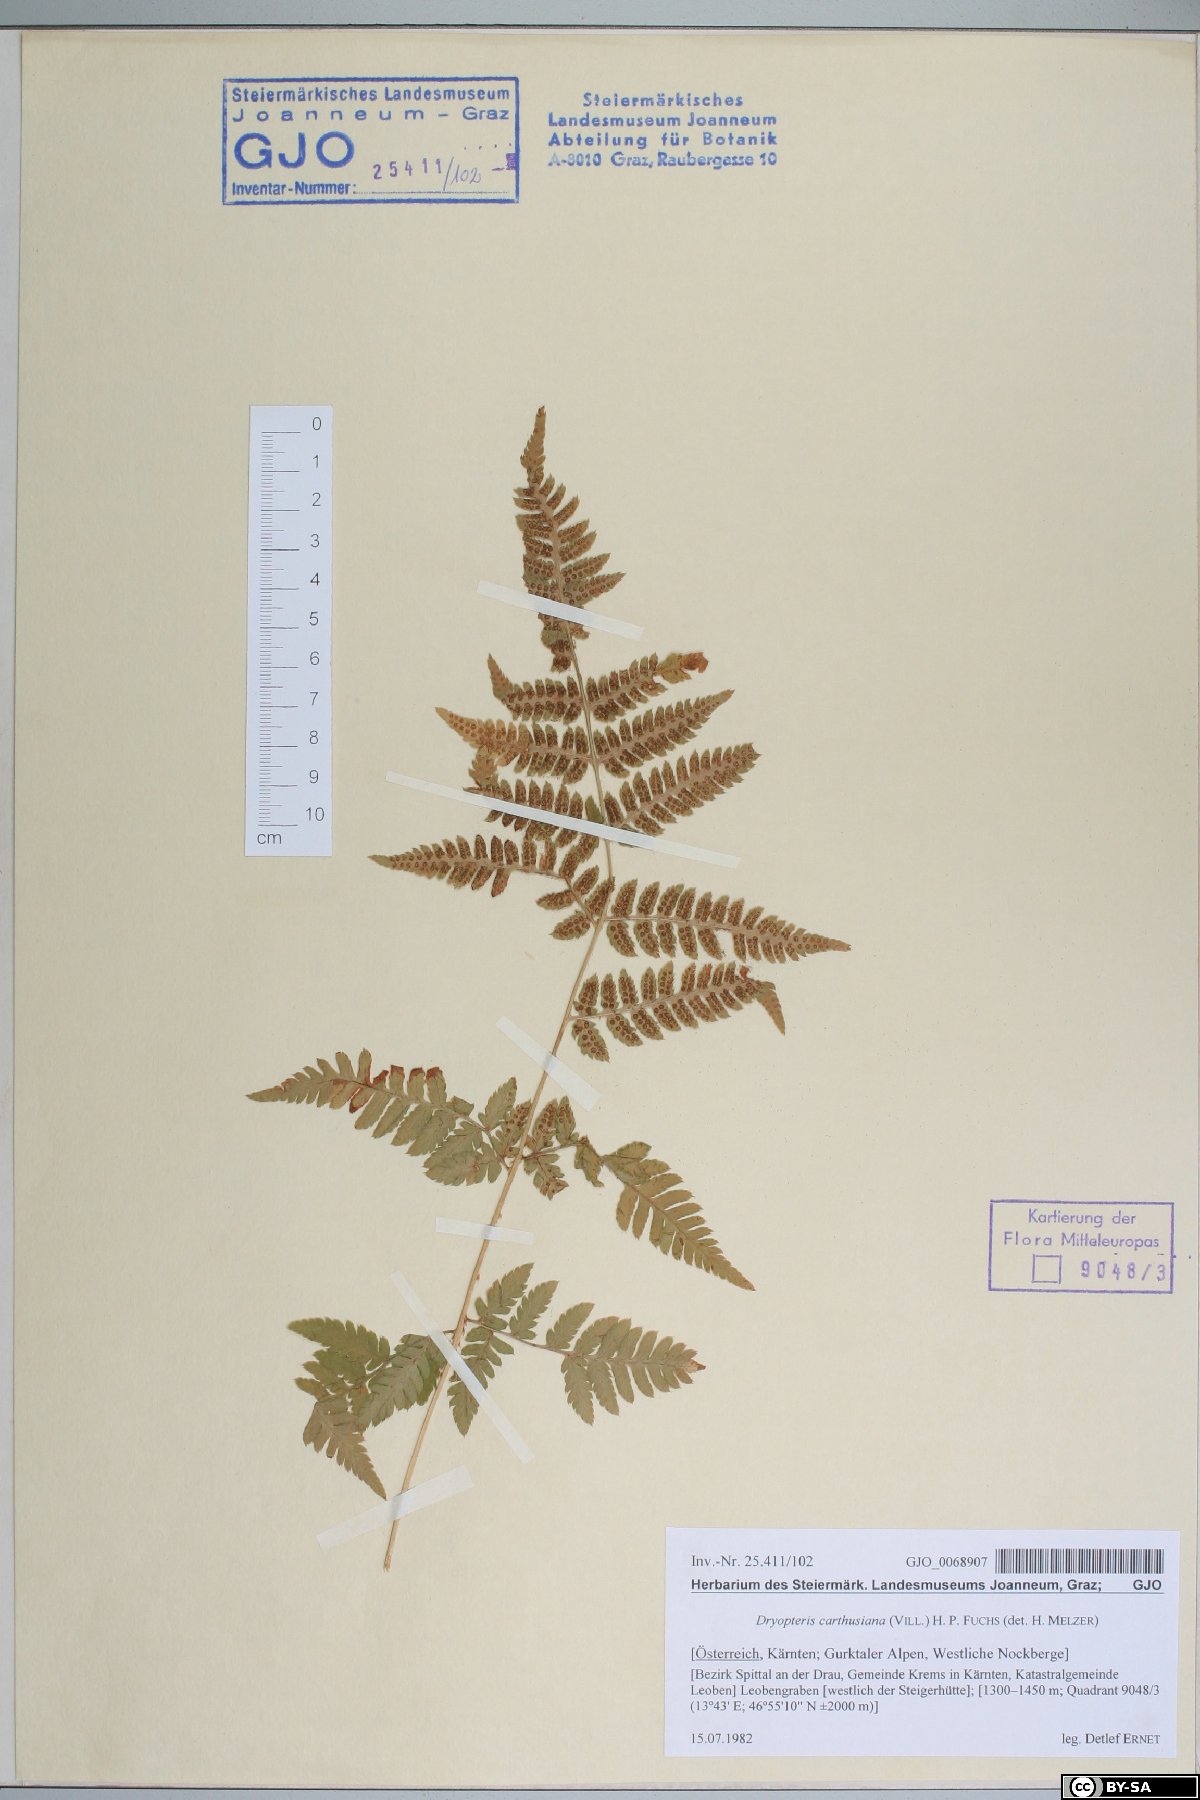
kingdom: Plantae
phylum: Tracheophyta
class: Polypodiopsida
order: Polypodiales
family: Dryopteridaceae
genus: Dryopteris
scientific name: Dryopteris carthusiana
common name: Narrow buckler-fern
